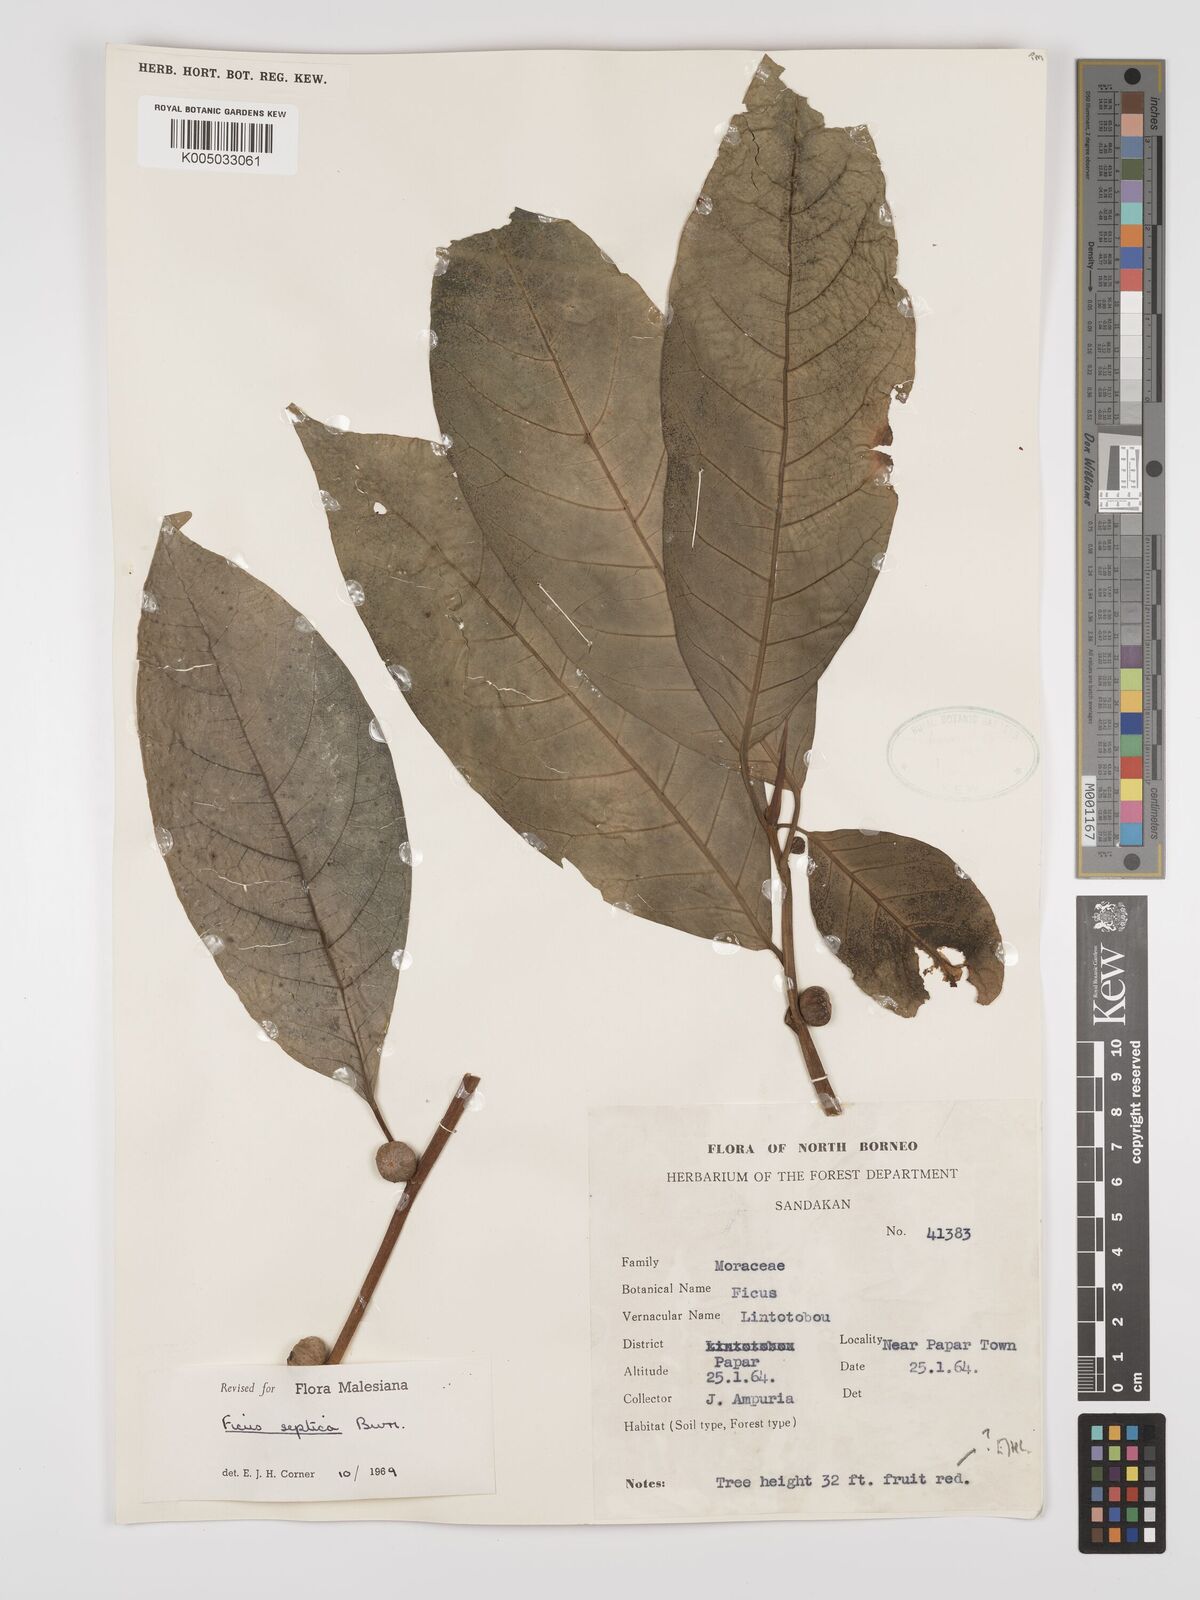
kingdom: Plantae
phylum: Tracheophyta
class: Magnoliopsida
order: Rosales
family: Moraceae
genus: Ficus
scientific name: Ficus septica
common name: Septic fig
